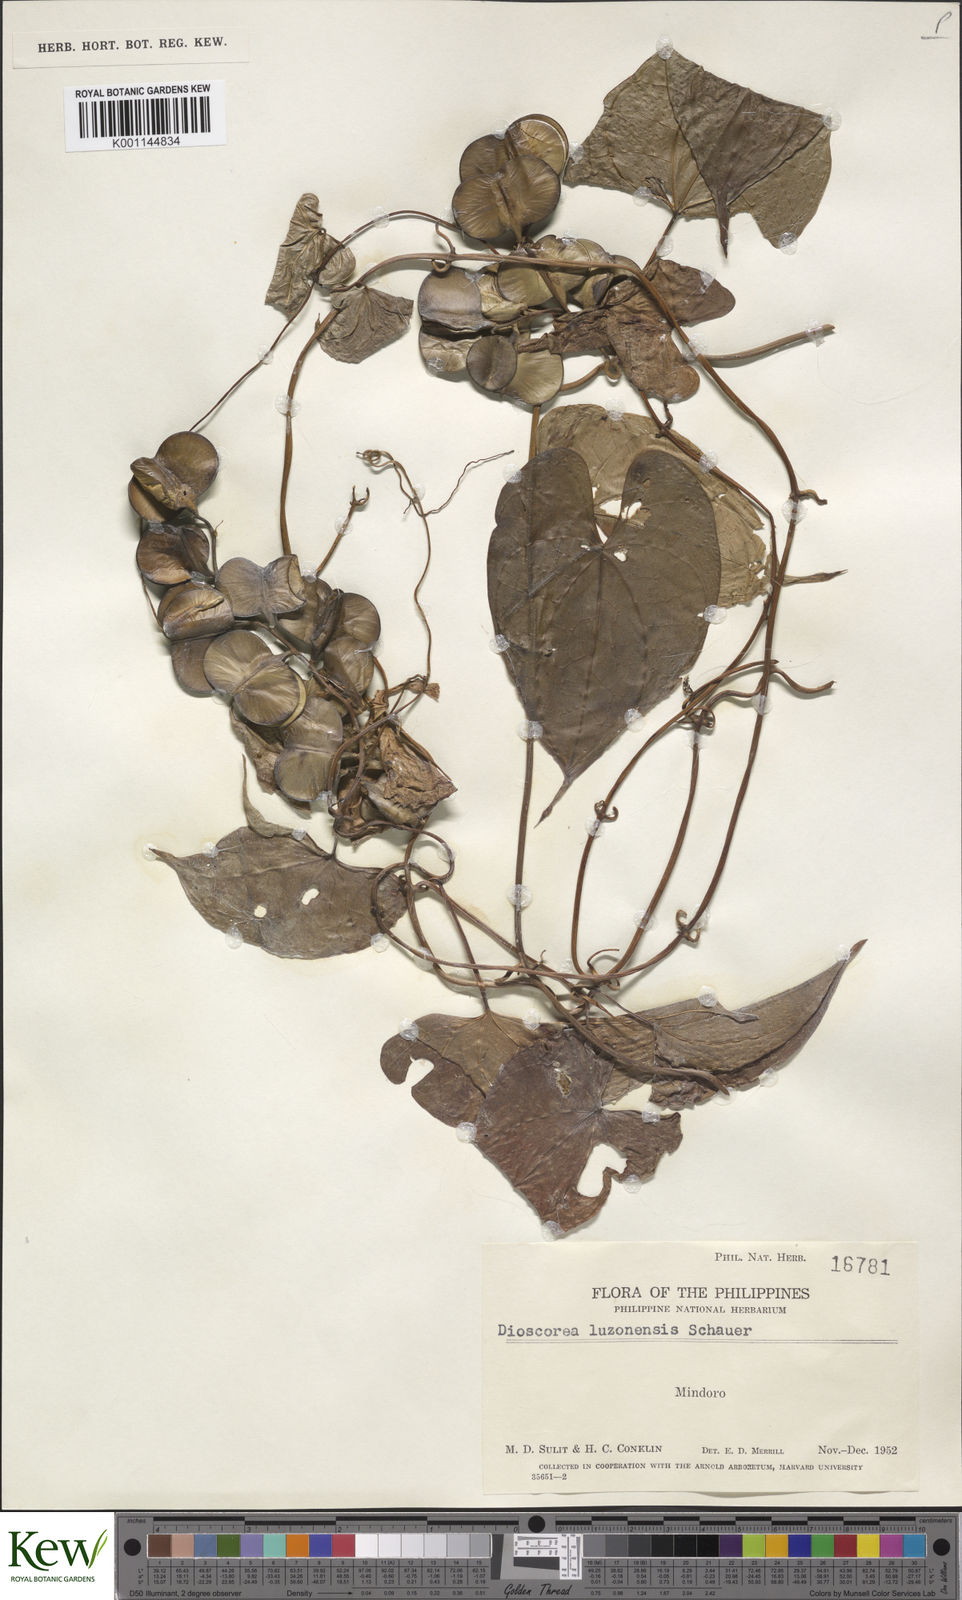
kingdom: Plantae
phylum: Tracheophyta
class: Liliopsida
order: Dioscoreales
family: Dioscoreaceae
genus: Dioscorea
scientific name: Dioscorea
